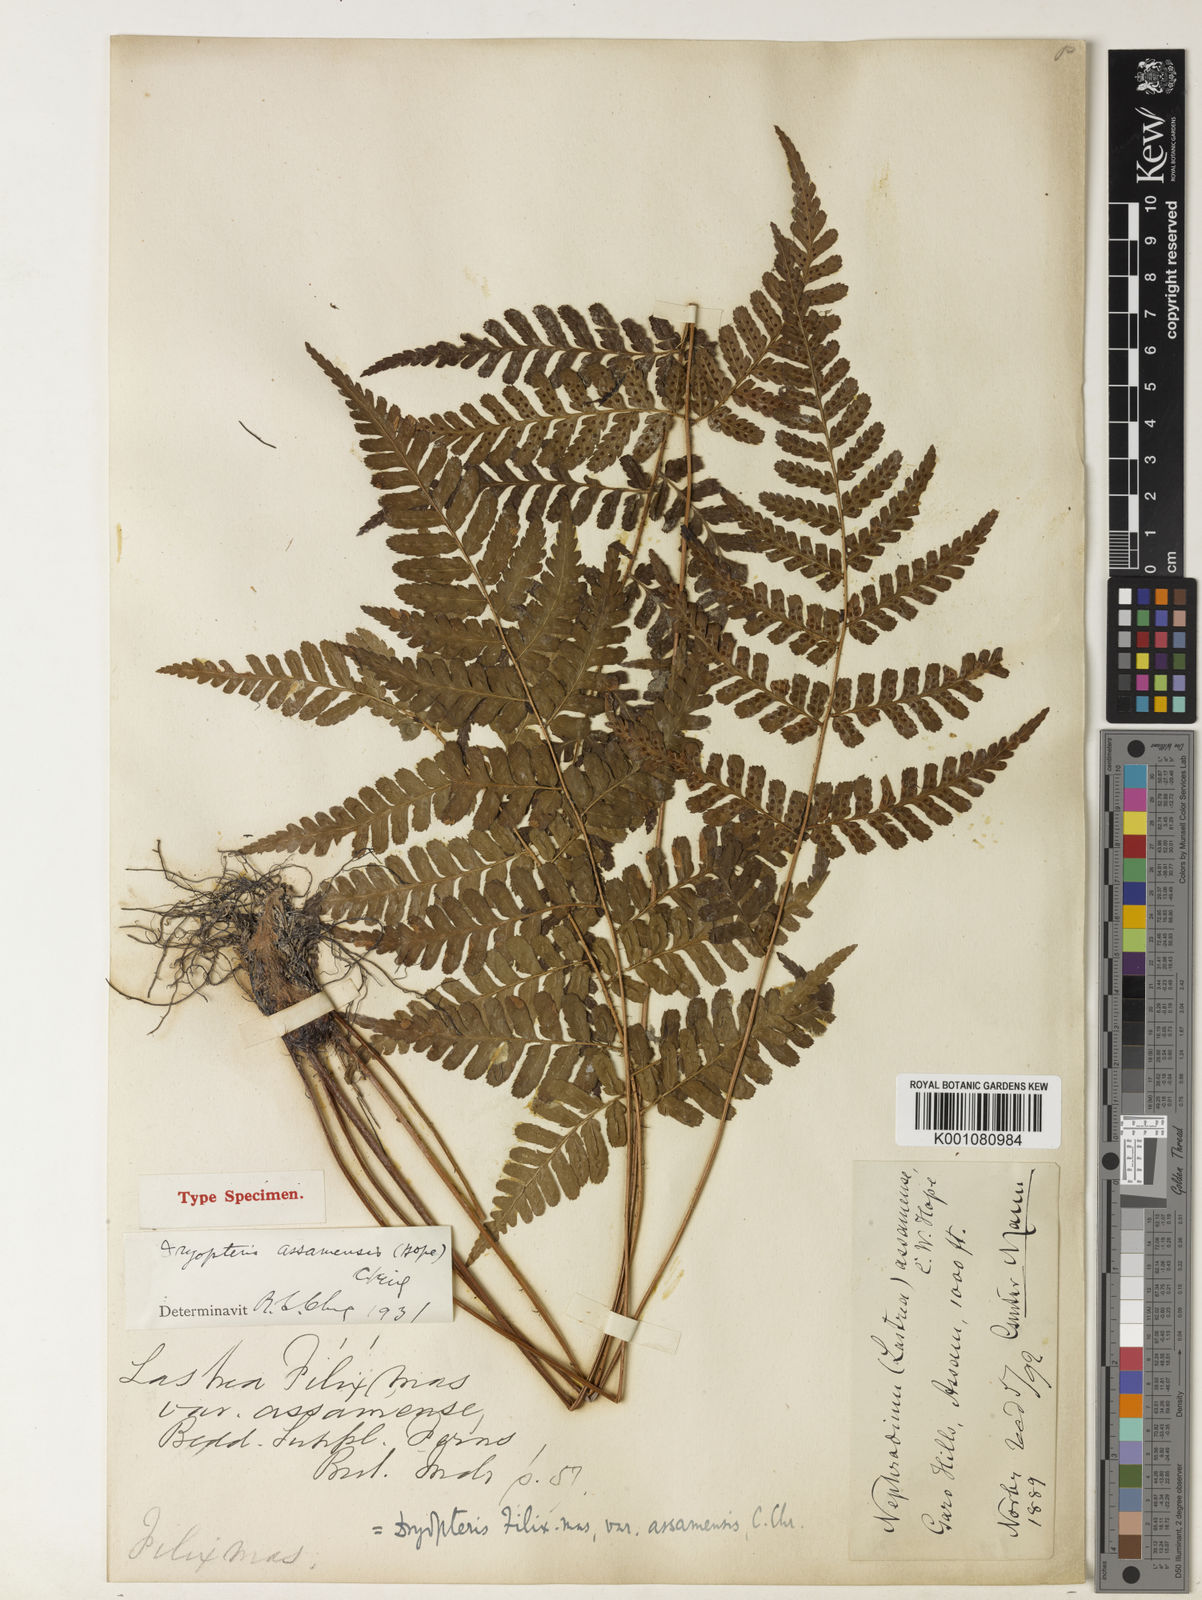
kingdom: Plantae
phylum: Tracheophyta
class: Polypodiopsida
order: Polypodiales
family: Dryopteridaceae
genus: Dryopteris
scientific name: Dryopteris assamensis
